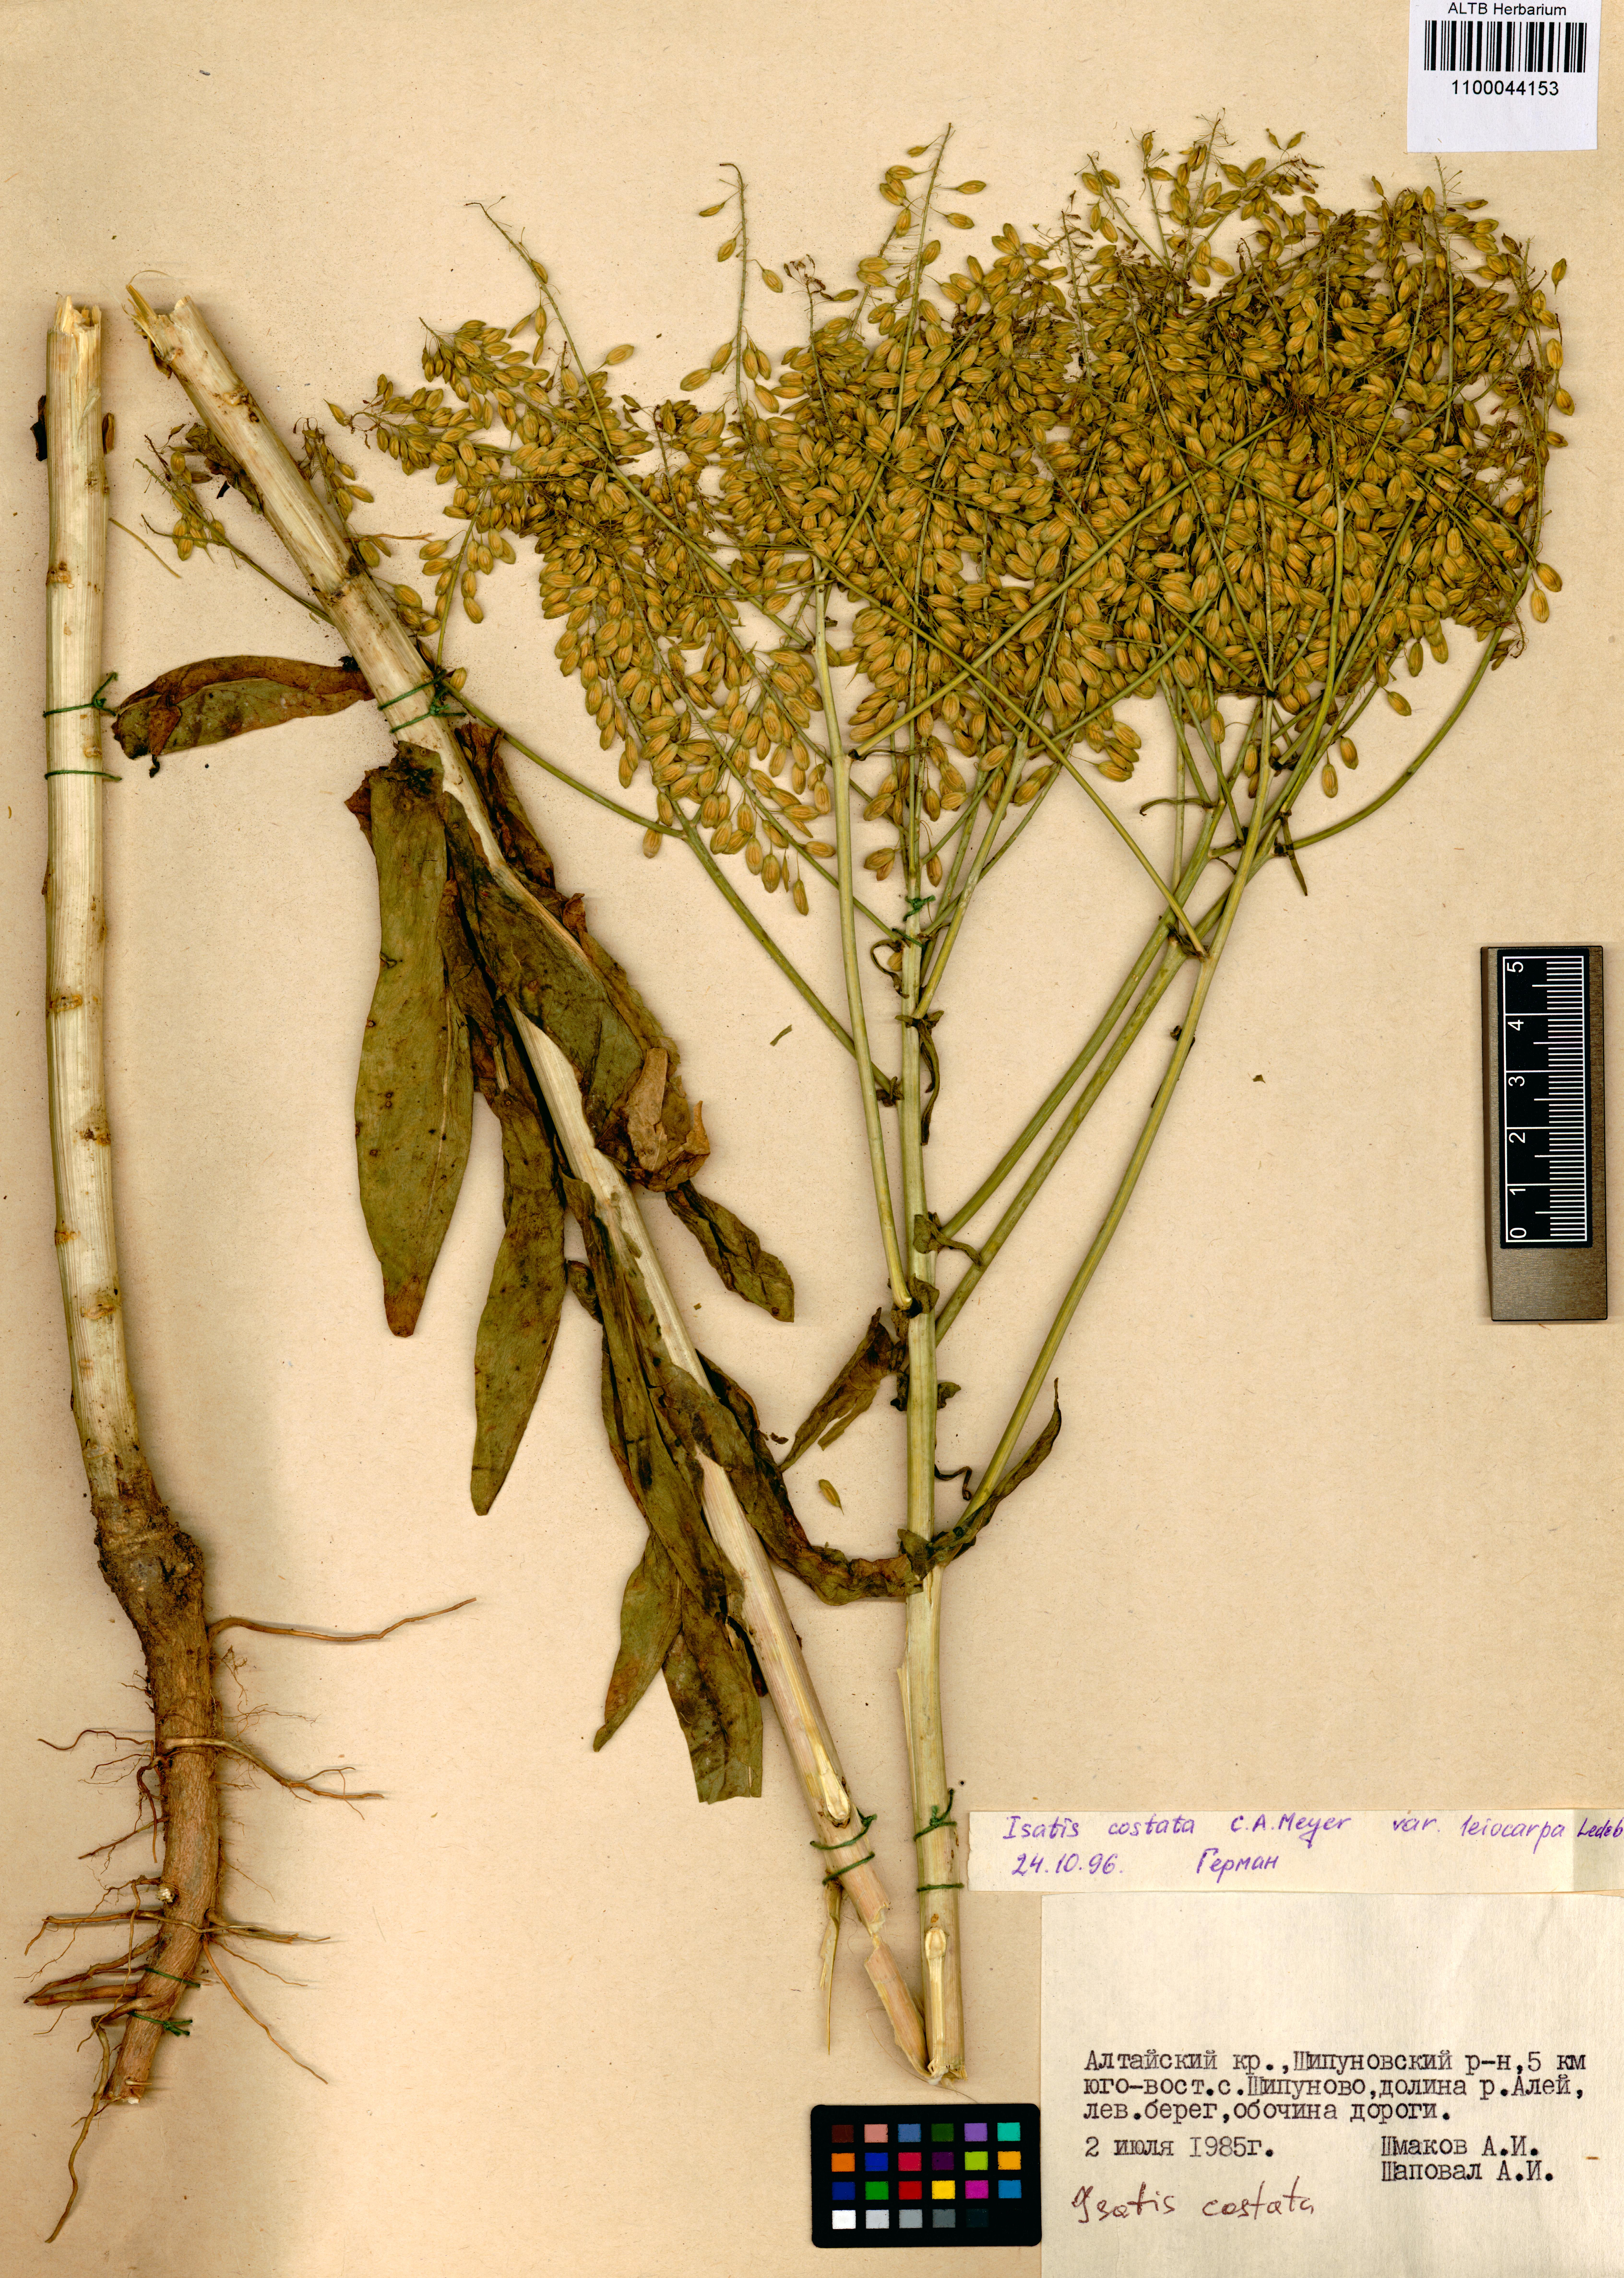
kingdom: Plantae
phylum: Tracheophyta
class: Magnoliopsida
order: Brassicales
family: Brassicaceae
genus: Isatis
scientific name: Isatis costata
